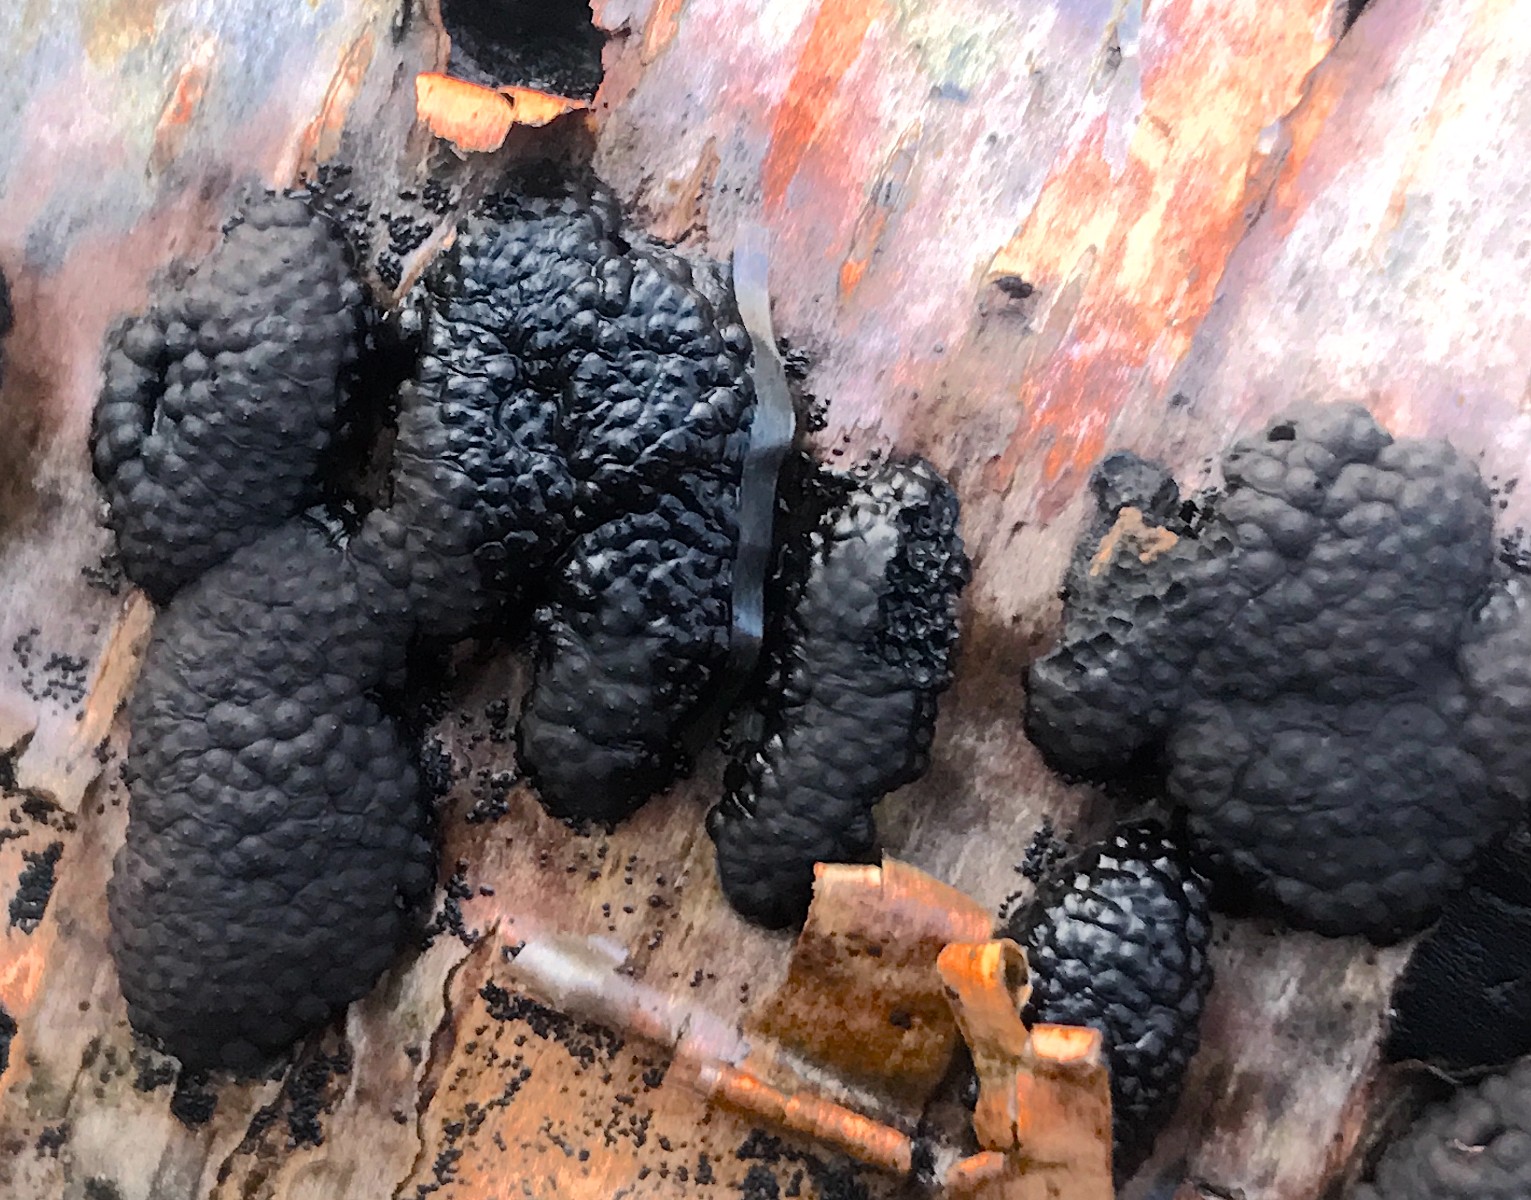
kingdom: Fungi
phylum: Ascomycota
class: Sordariomycetes
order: Xylariales
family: Hypoxylaceae
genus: Jackrogersella
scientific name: Jackrogersella multiformis
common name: foranderlig kulbær
